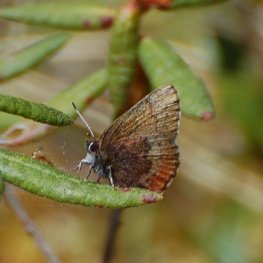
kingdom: Animalia
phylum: Arthropoda
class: Insecta
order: Lepidoptera
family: Lycaenidae
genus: Incisalia
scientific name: Incisalia irioides
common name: Brown Elfin
